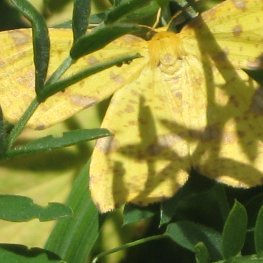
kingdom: Animalia
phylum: Arthropoda
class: Insecta
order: Lepidoptera
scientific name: Lepidoptera
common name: Butterflies
